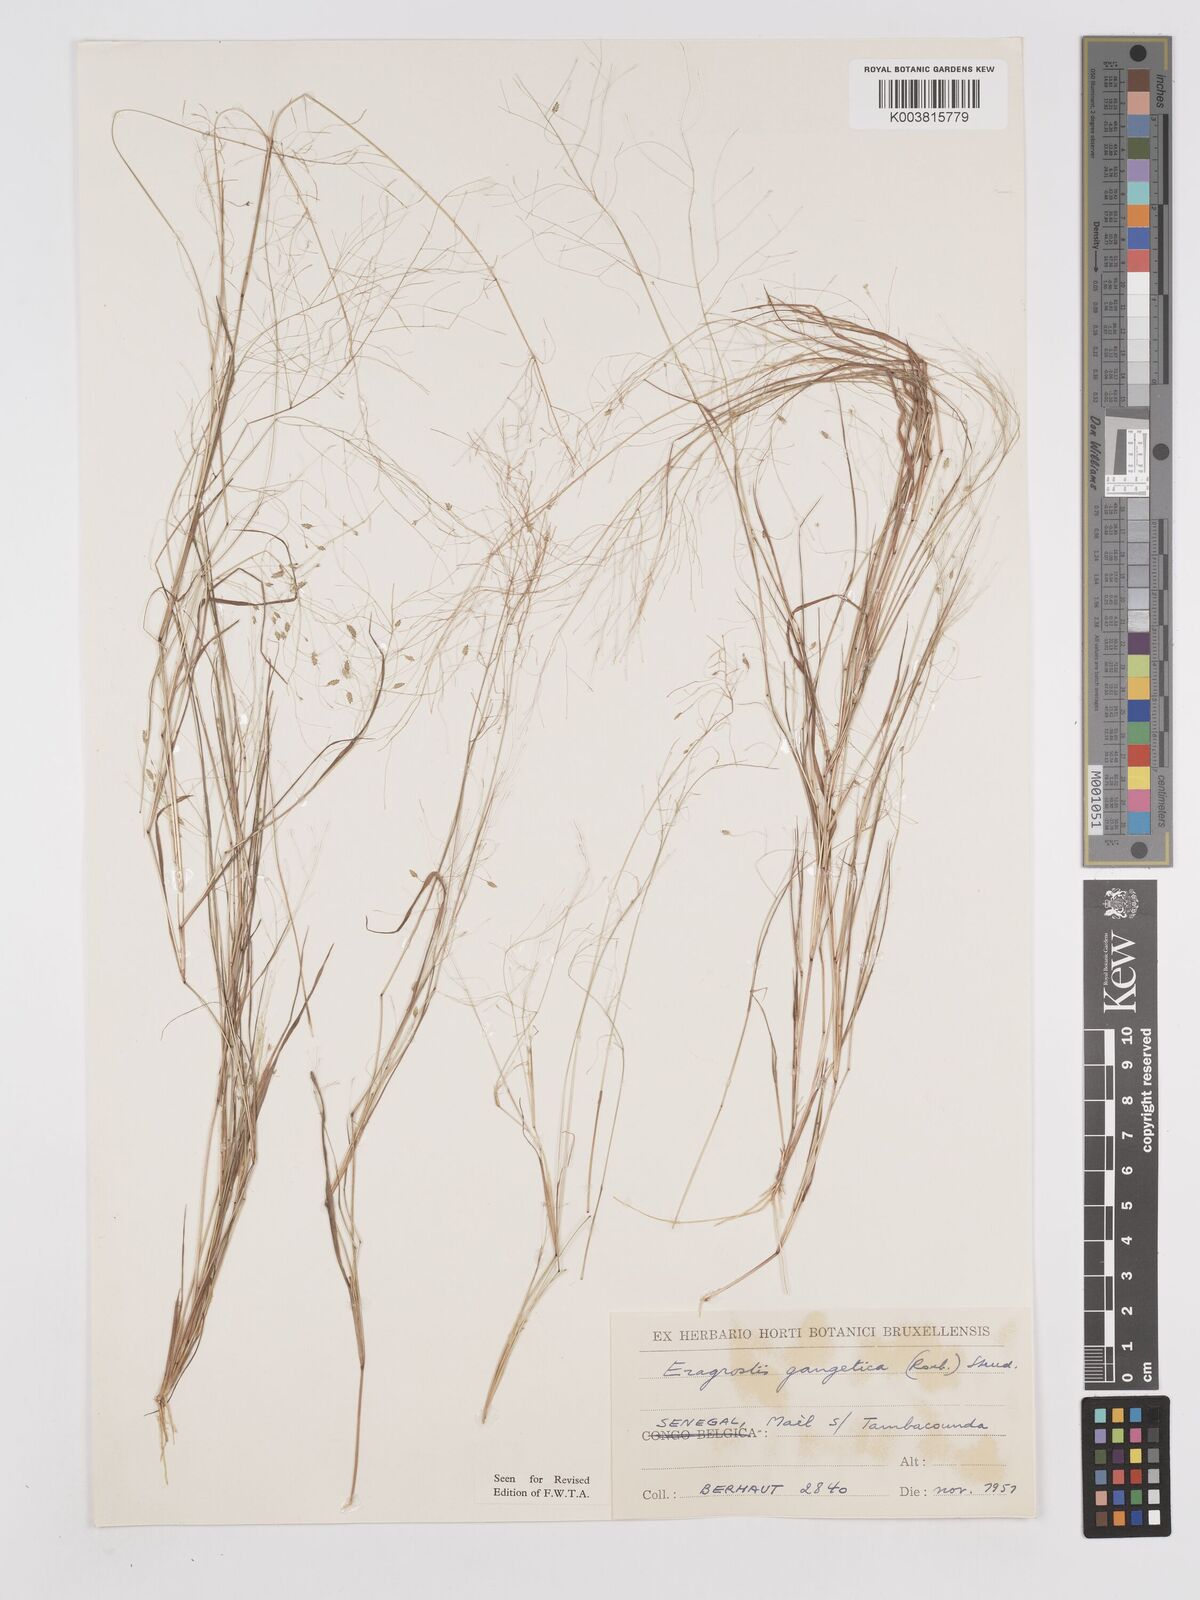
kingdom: Plantae
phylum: Tracheophyta
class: Liliopsida
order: Poales
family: Poaceae
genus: Eragrostis
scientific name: Eragrostis gangetica
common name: Slimflower lovegrass
